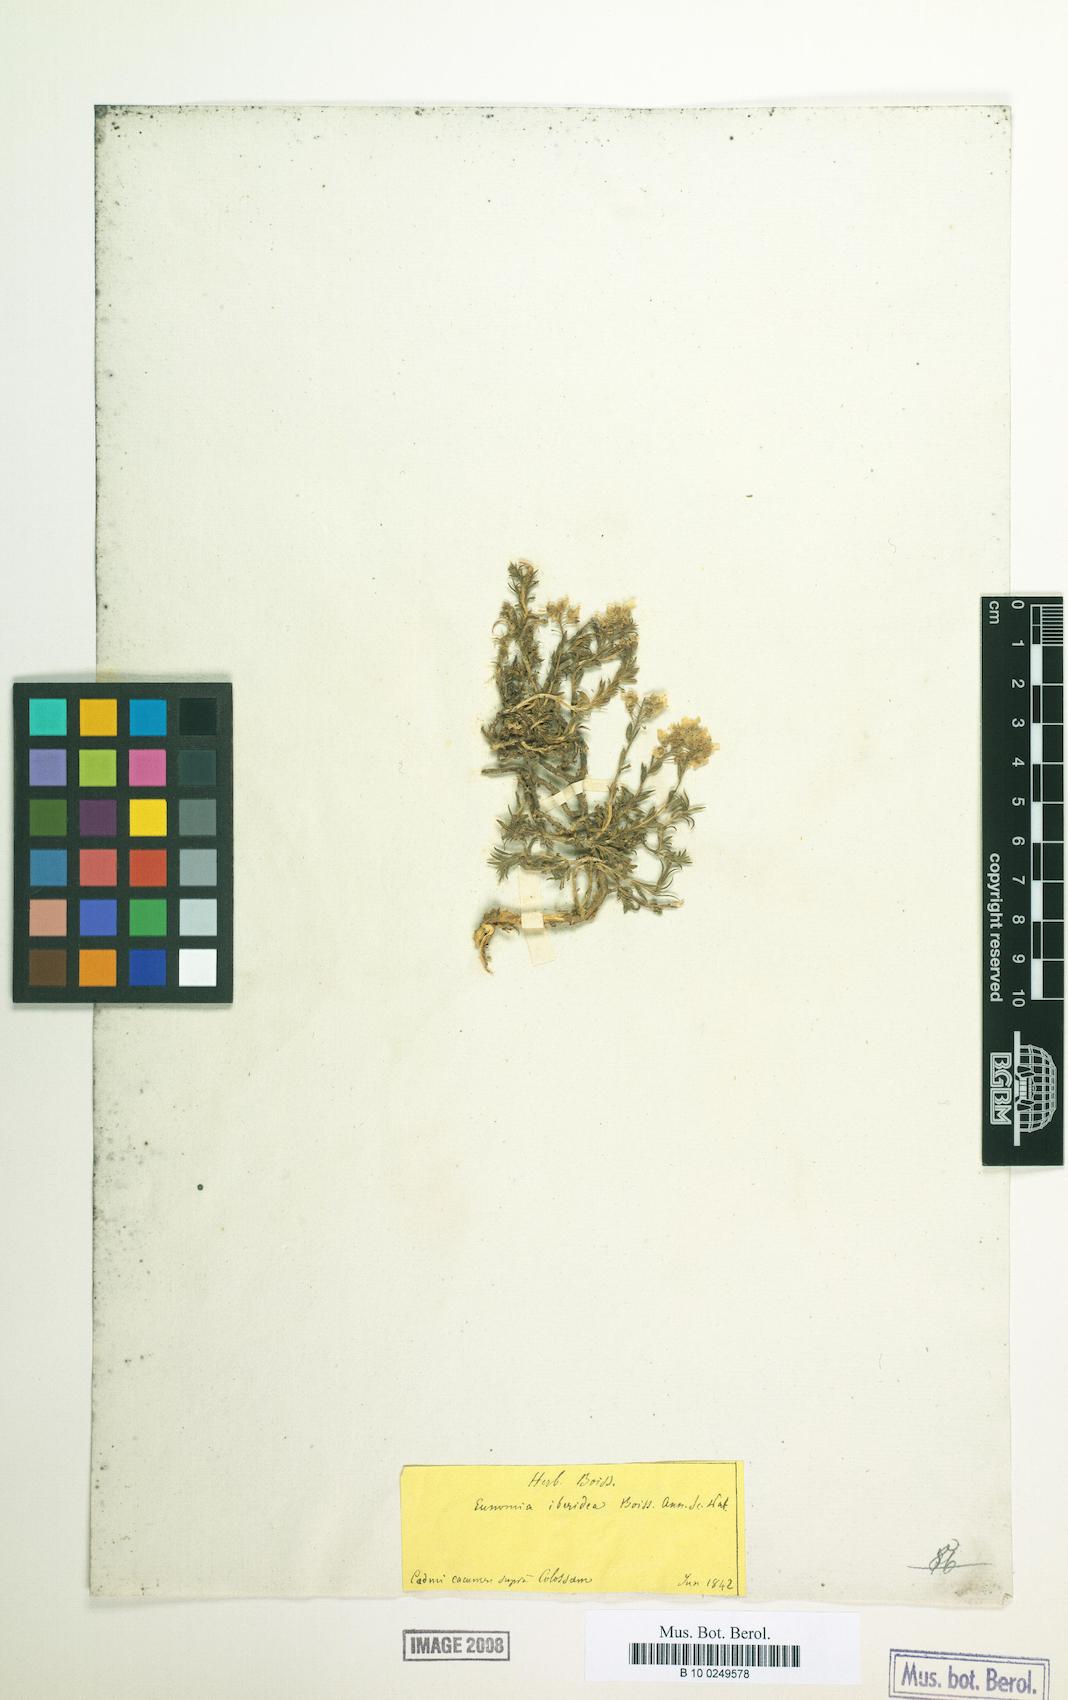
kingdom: Plantae
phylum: Tracheophyta
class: Magnoliopsida
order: Brassicales
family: Brassicaceae
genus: Noccaea
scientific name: Noccaea iberidea
